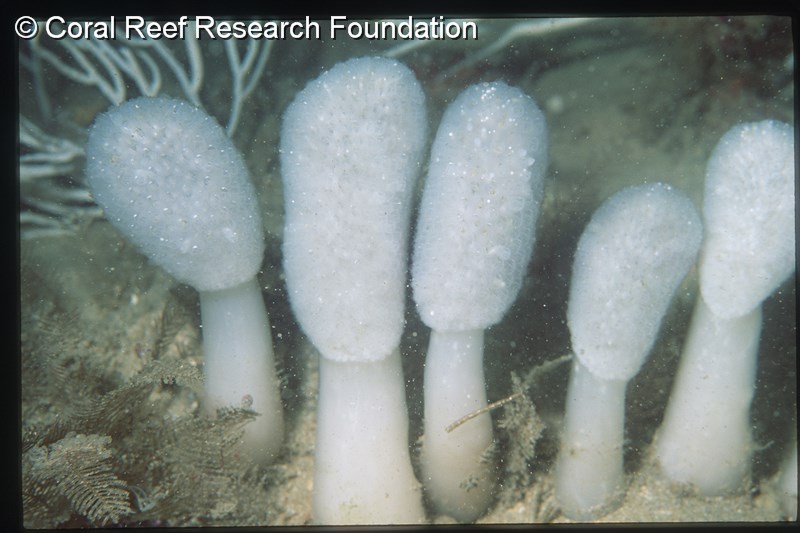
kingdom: Animalia
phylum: Chordata
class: Ascidiacea
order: Aplousobranchia
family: Polycitoridae
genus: Eudistoma
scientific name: Eudistoma
